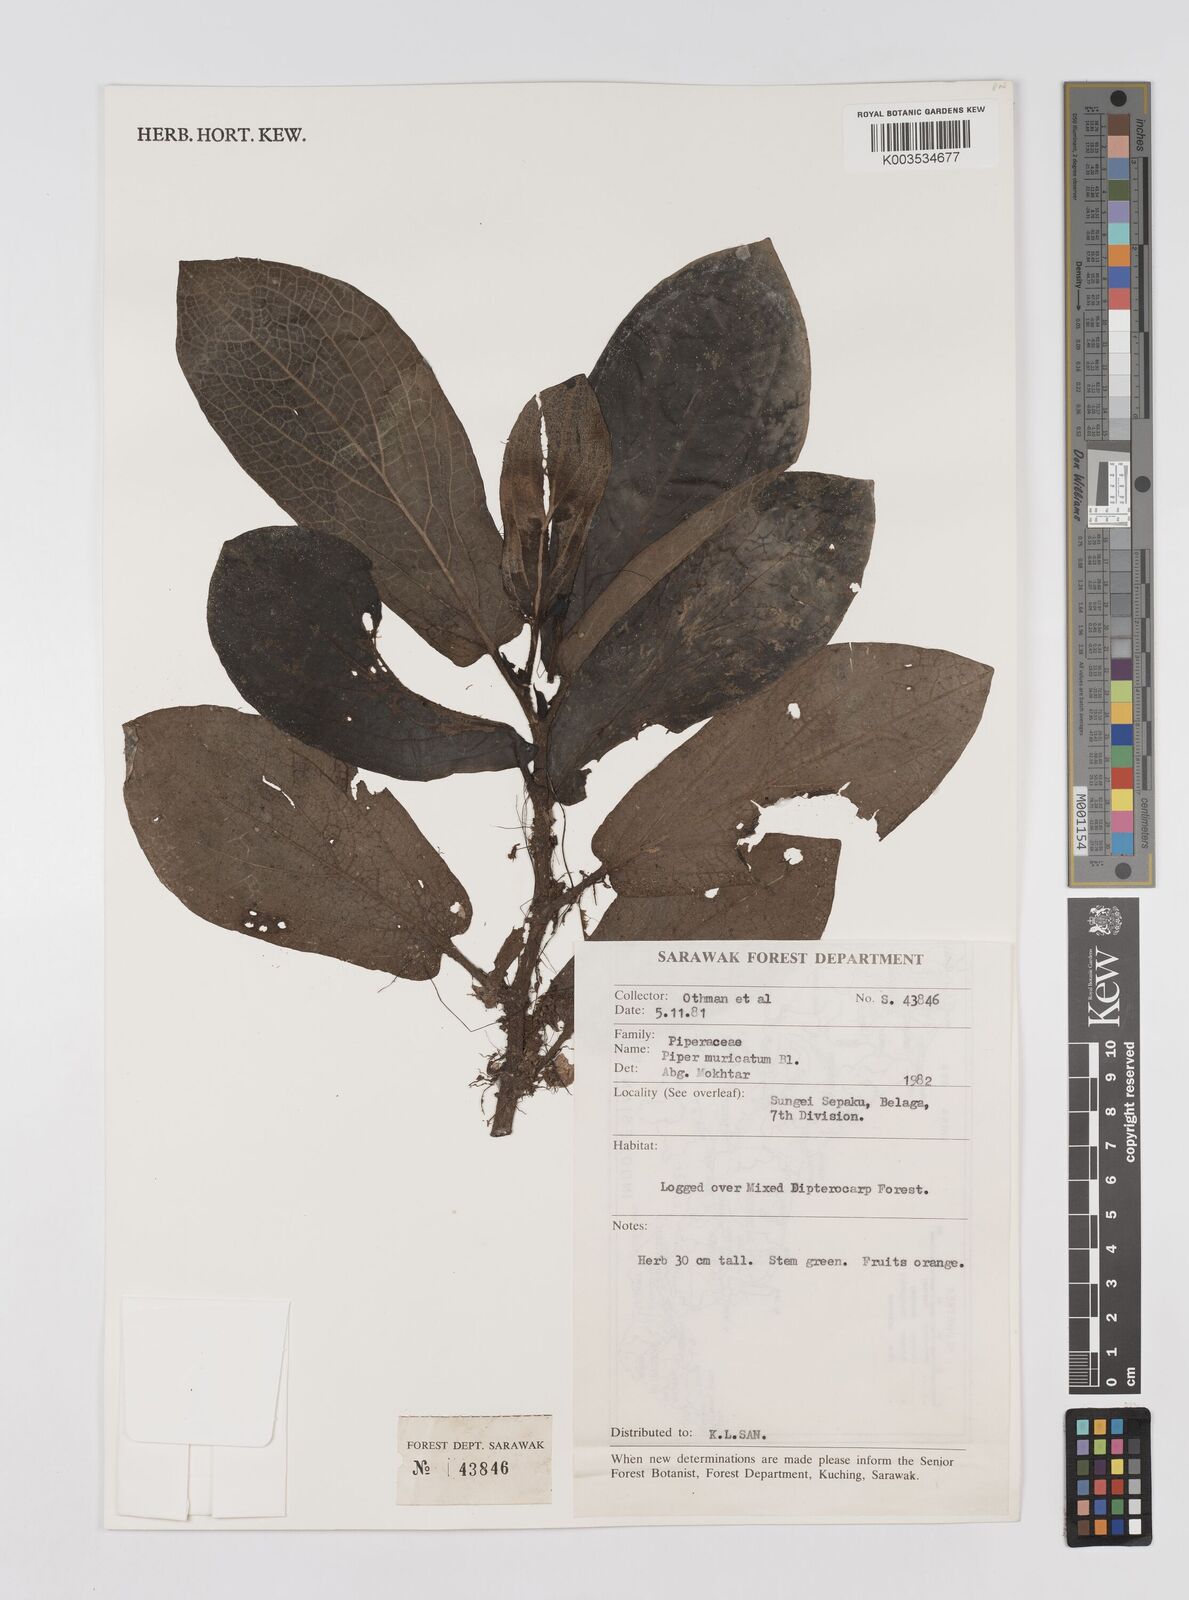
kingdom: Plantae
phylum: Tracheophyta
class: Magnoliopsida
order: Piperales
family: Piperaceae
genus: Piper
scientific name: Piper muricatum
